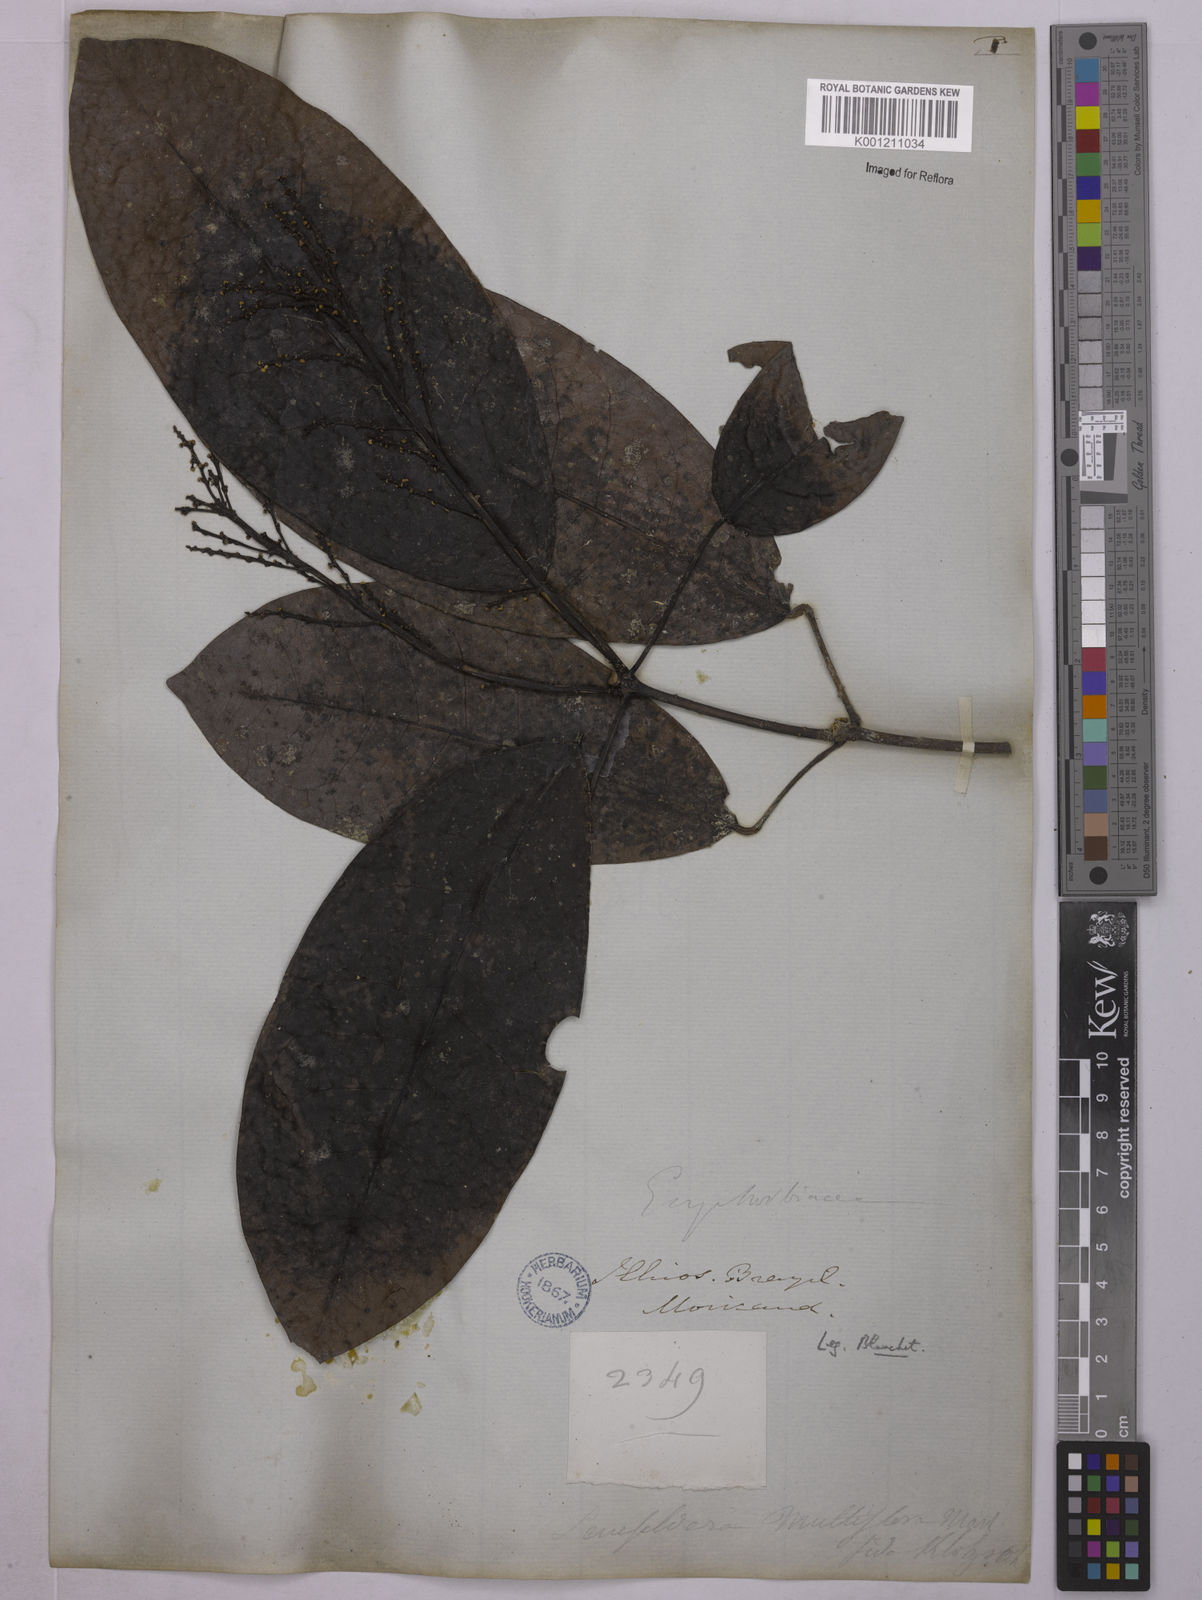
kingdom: Plantae
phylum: Tracheophyta
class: Magnoliopsida
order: Malpighiales
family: Euphorbiaceae
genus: Senefeldera
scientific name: Senefeldera verticillata
